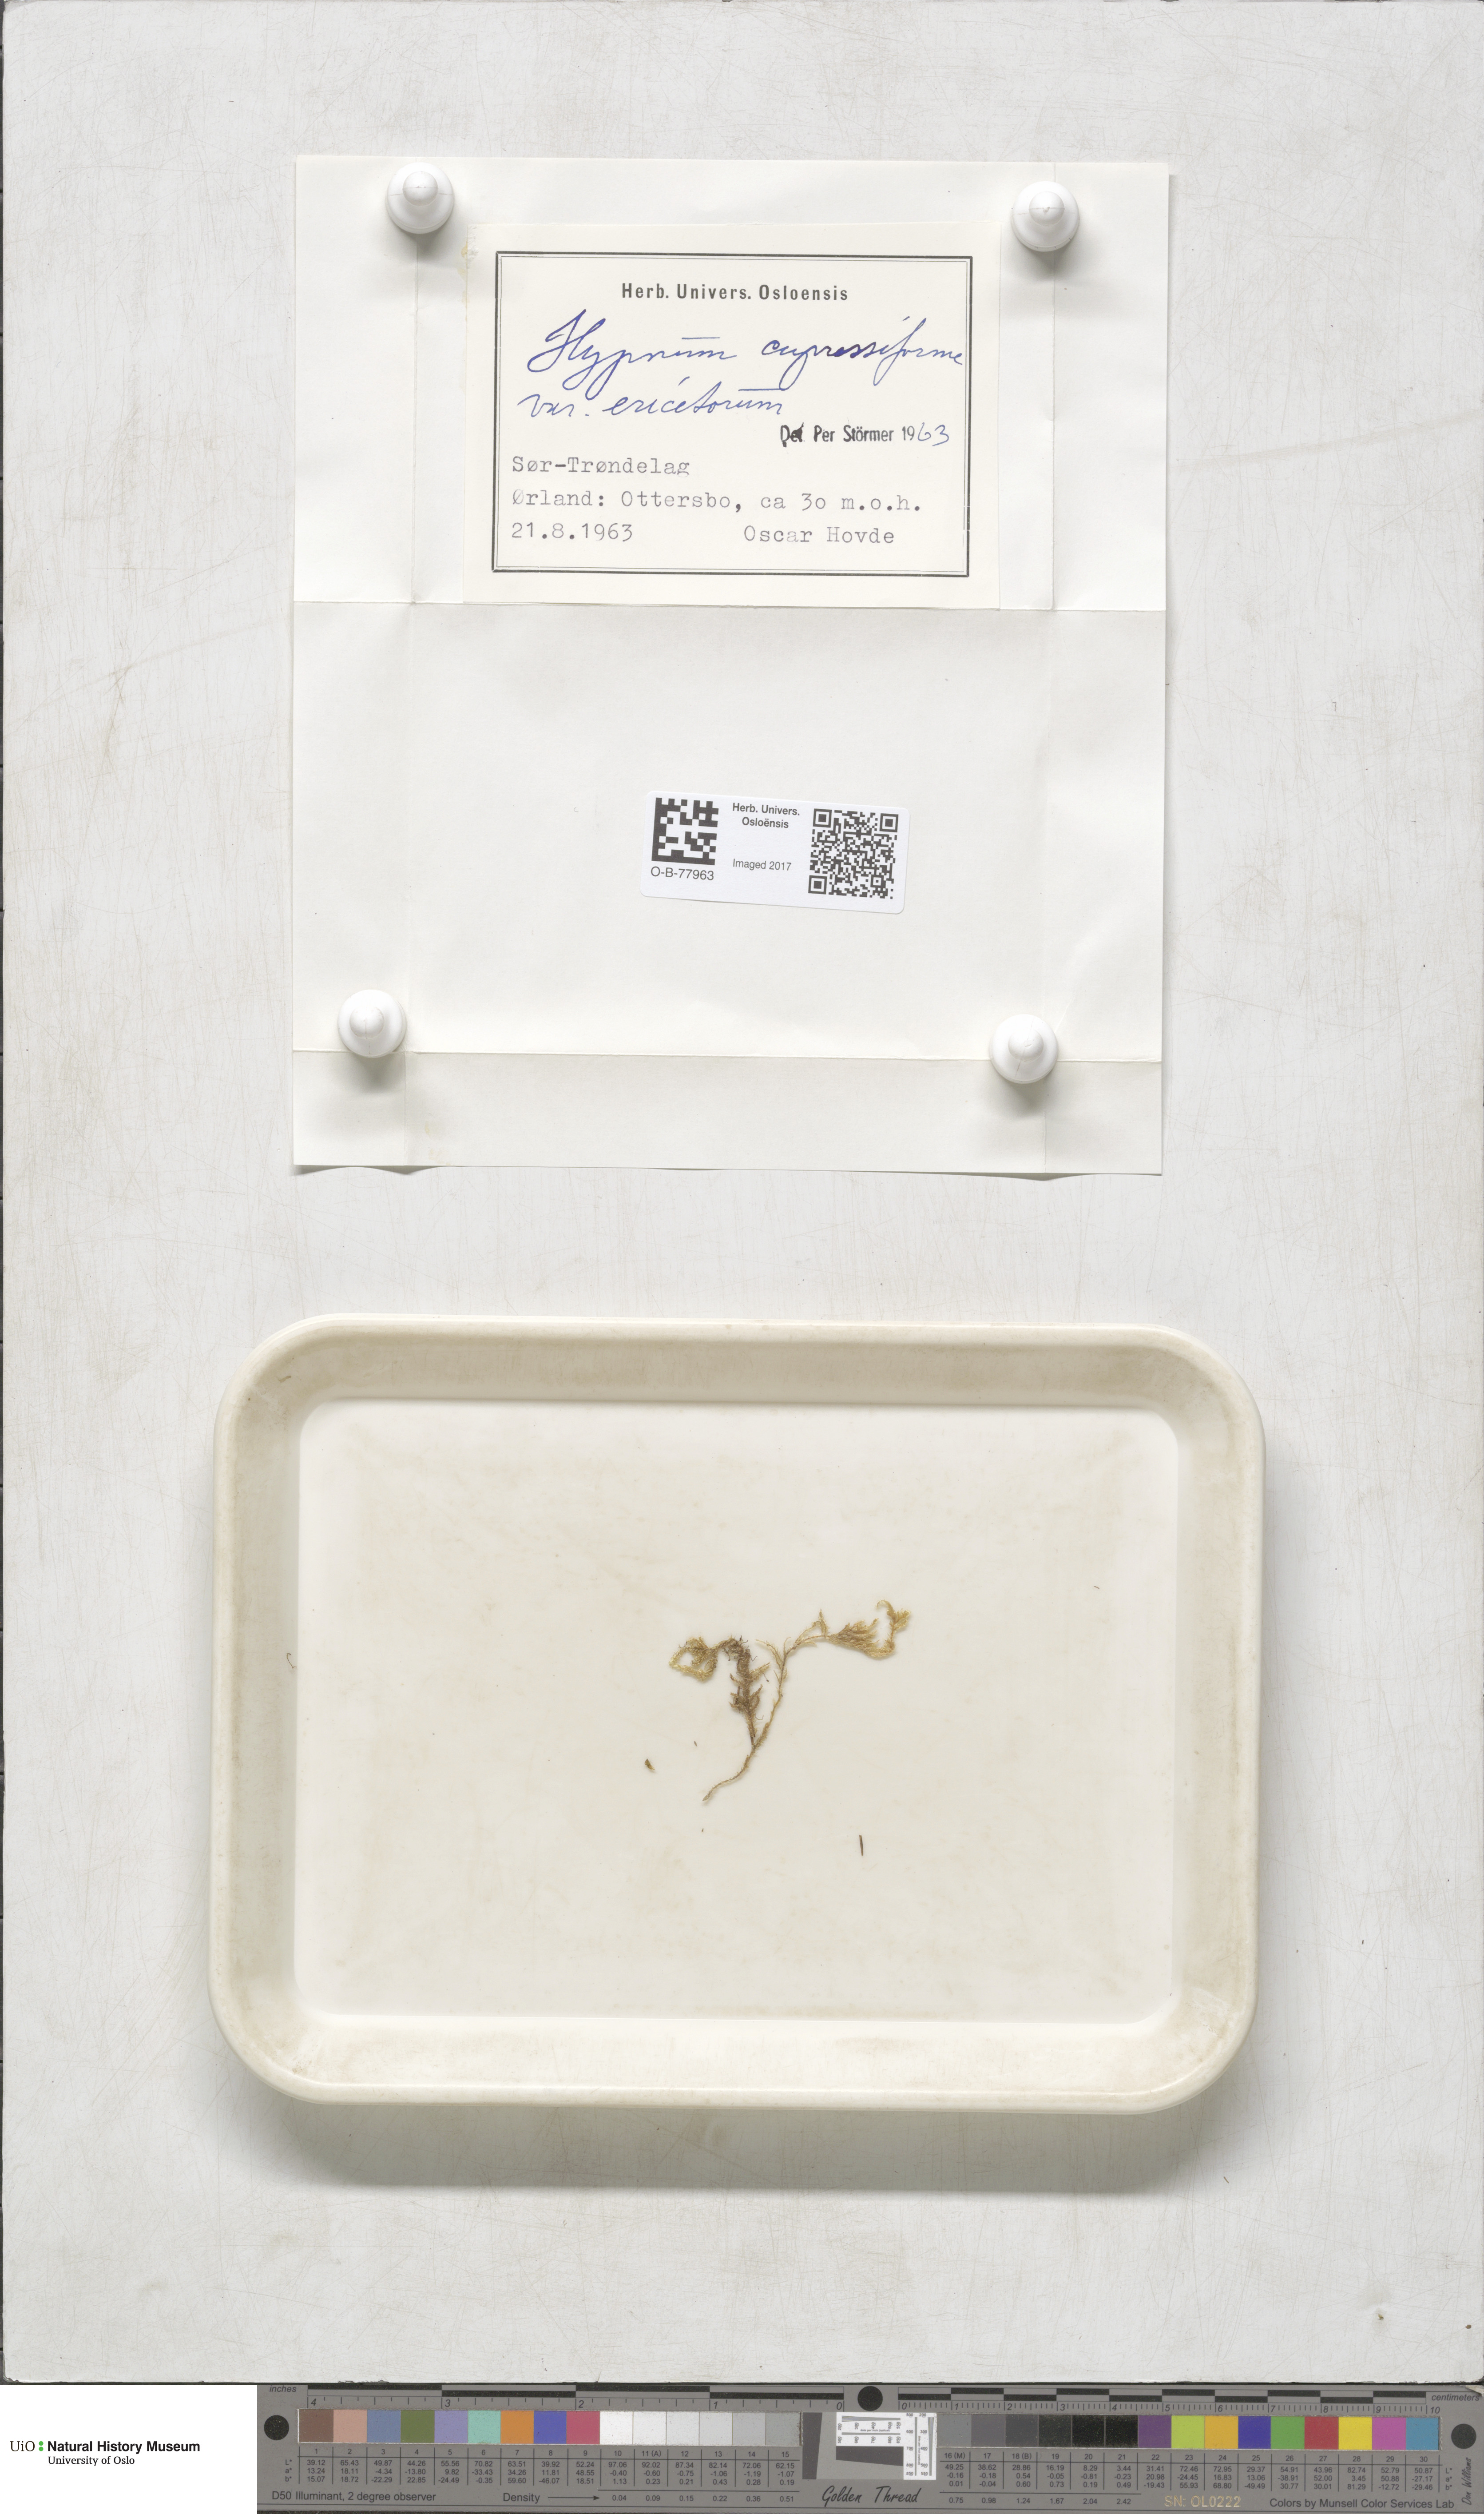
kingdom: Plantae
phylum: Bryophyta
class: Bryopsida
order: Hypnales
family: Hypnaceae
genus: Hypnum
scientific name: Hypnum jutlandicum
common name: Heath plait-moss
